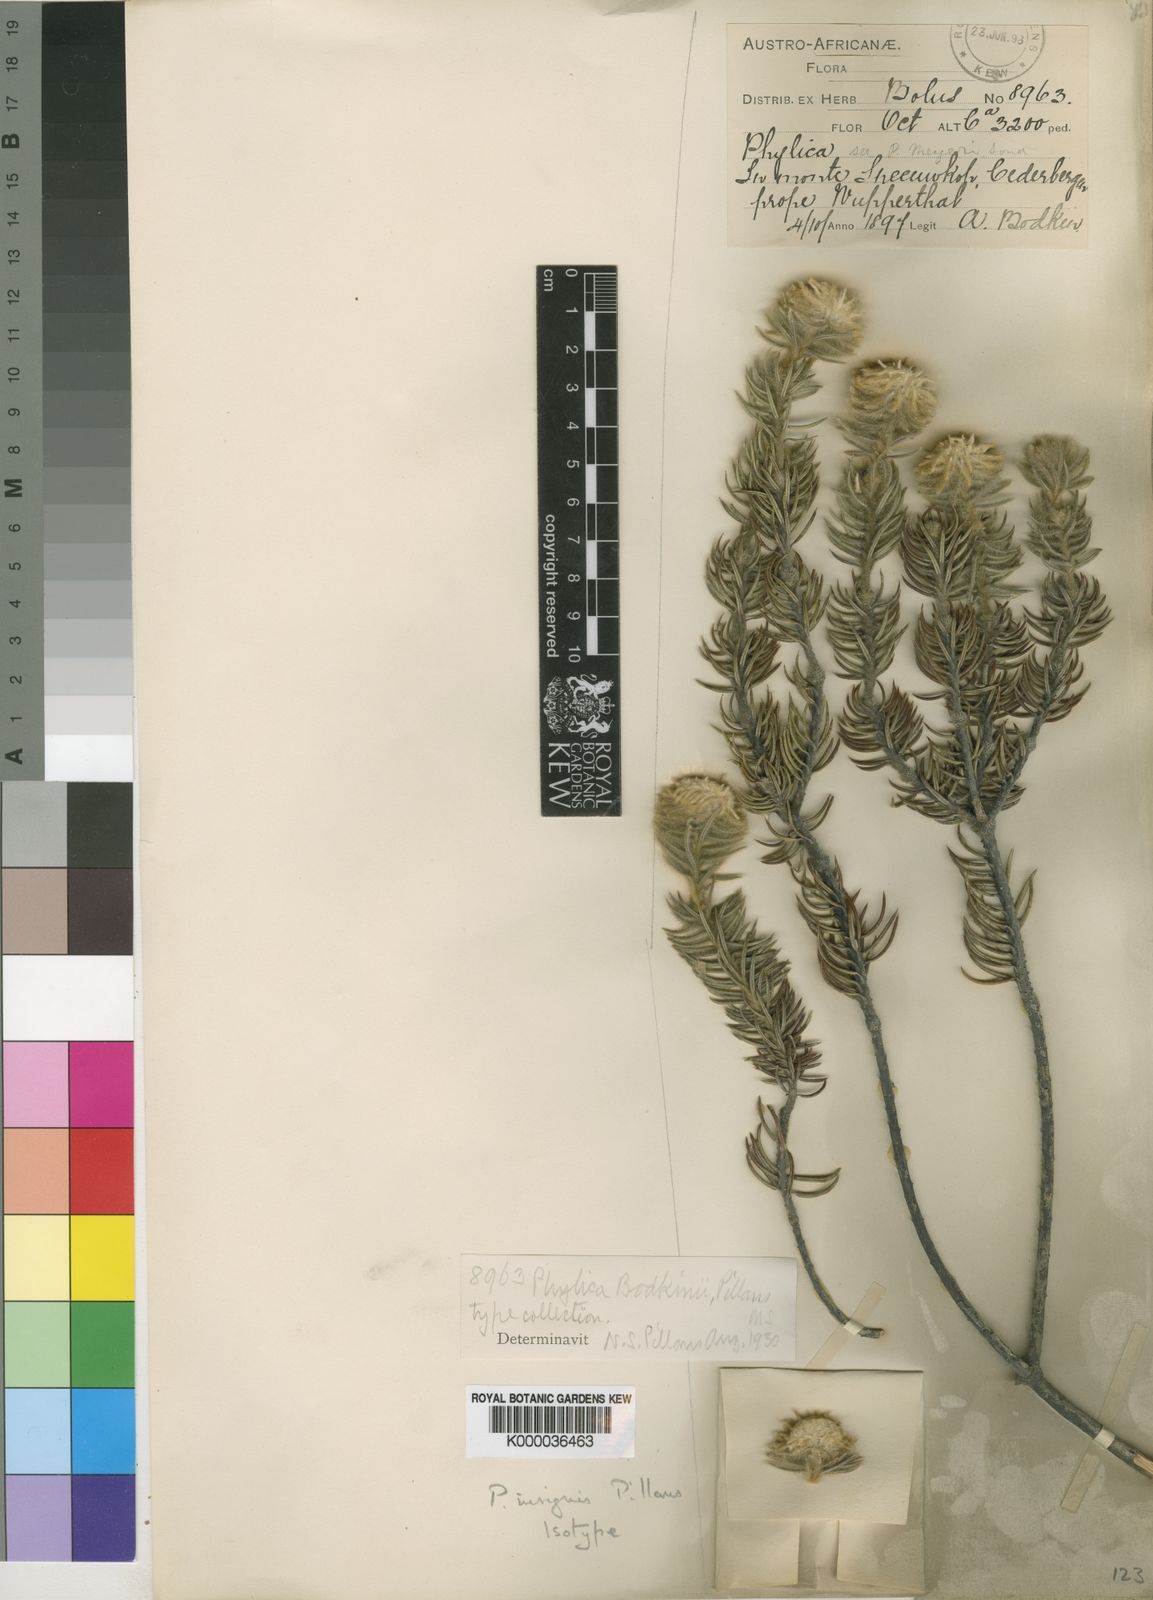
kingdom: Plantae
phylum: Tracheophyta
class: Magnoliopsida
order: Rosales
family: Rhamnaceae
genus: Phylica
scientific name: Phylica insignis
